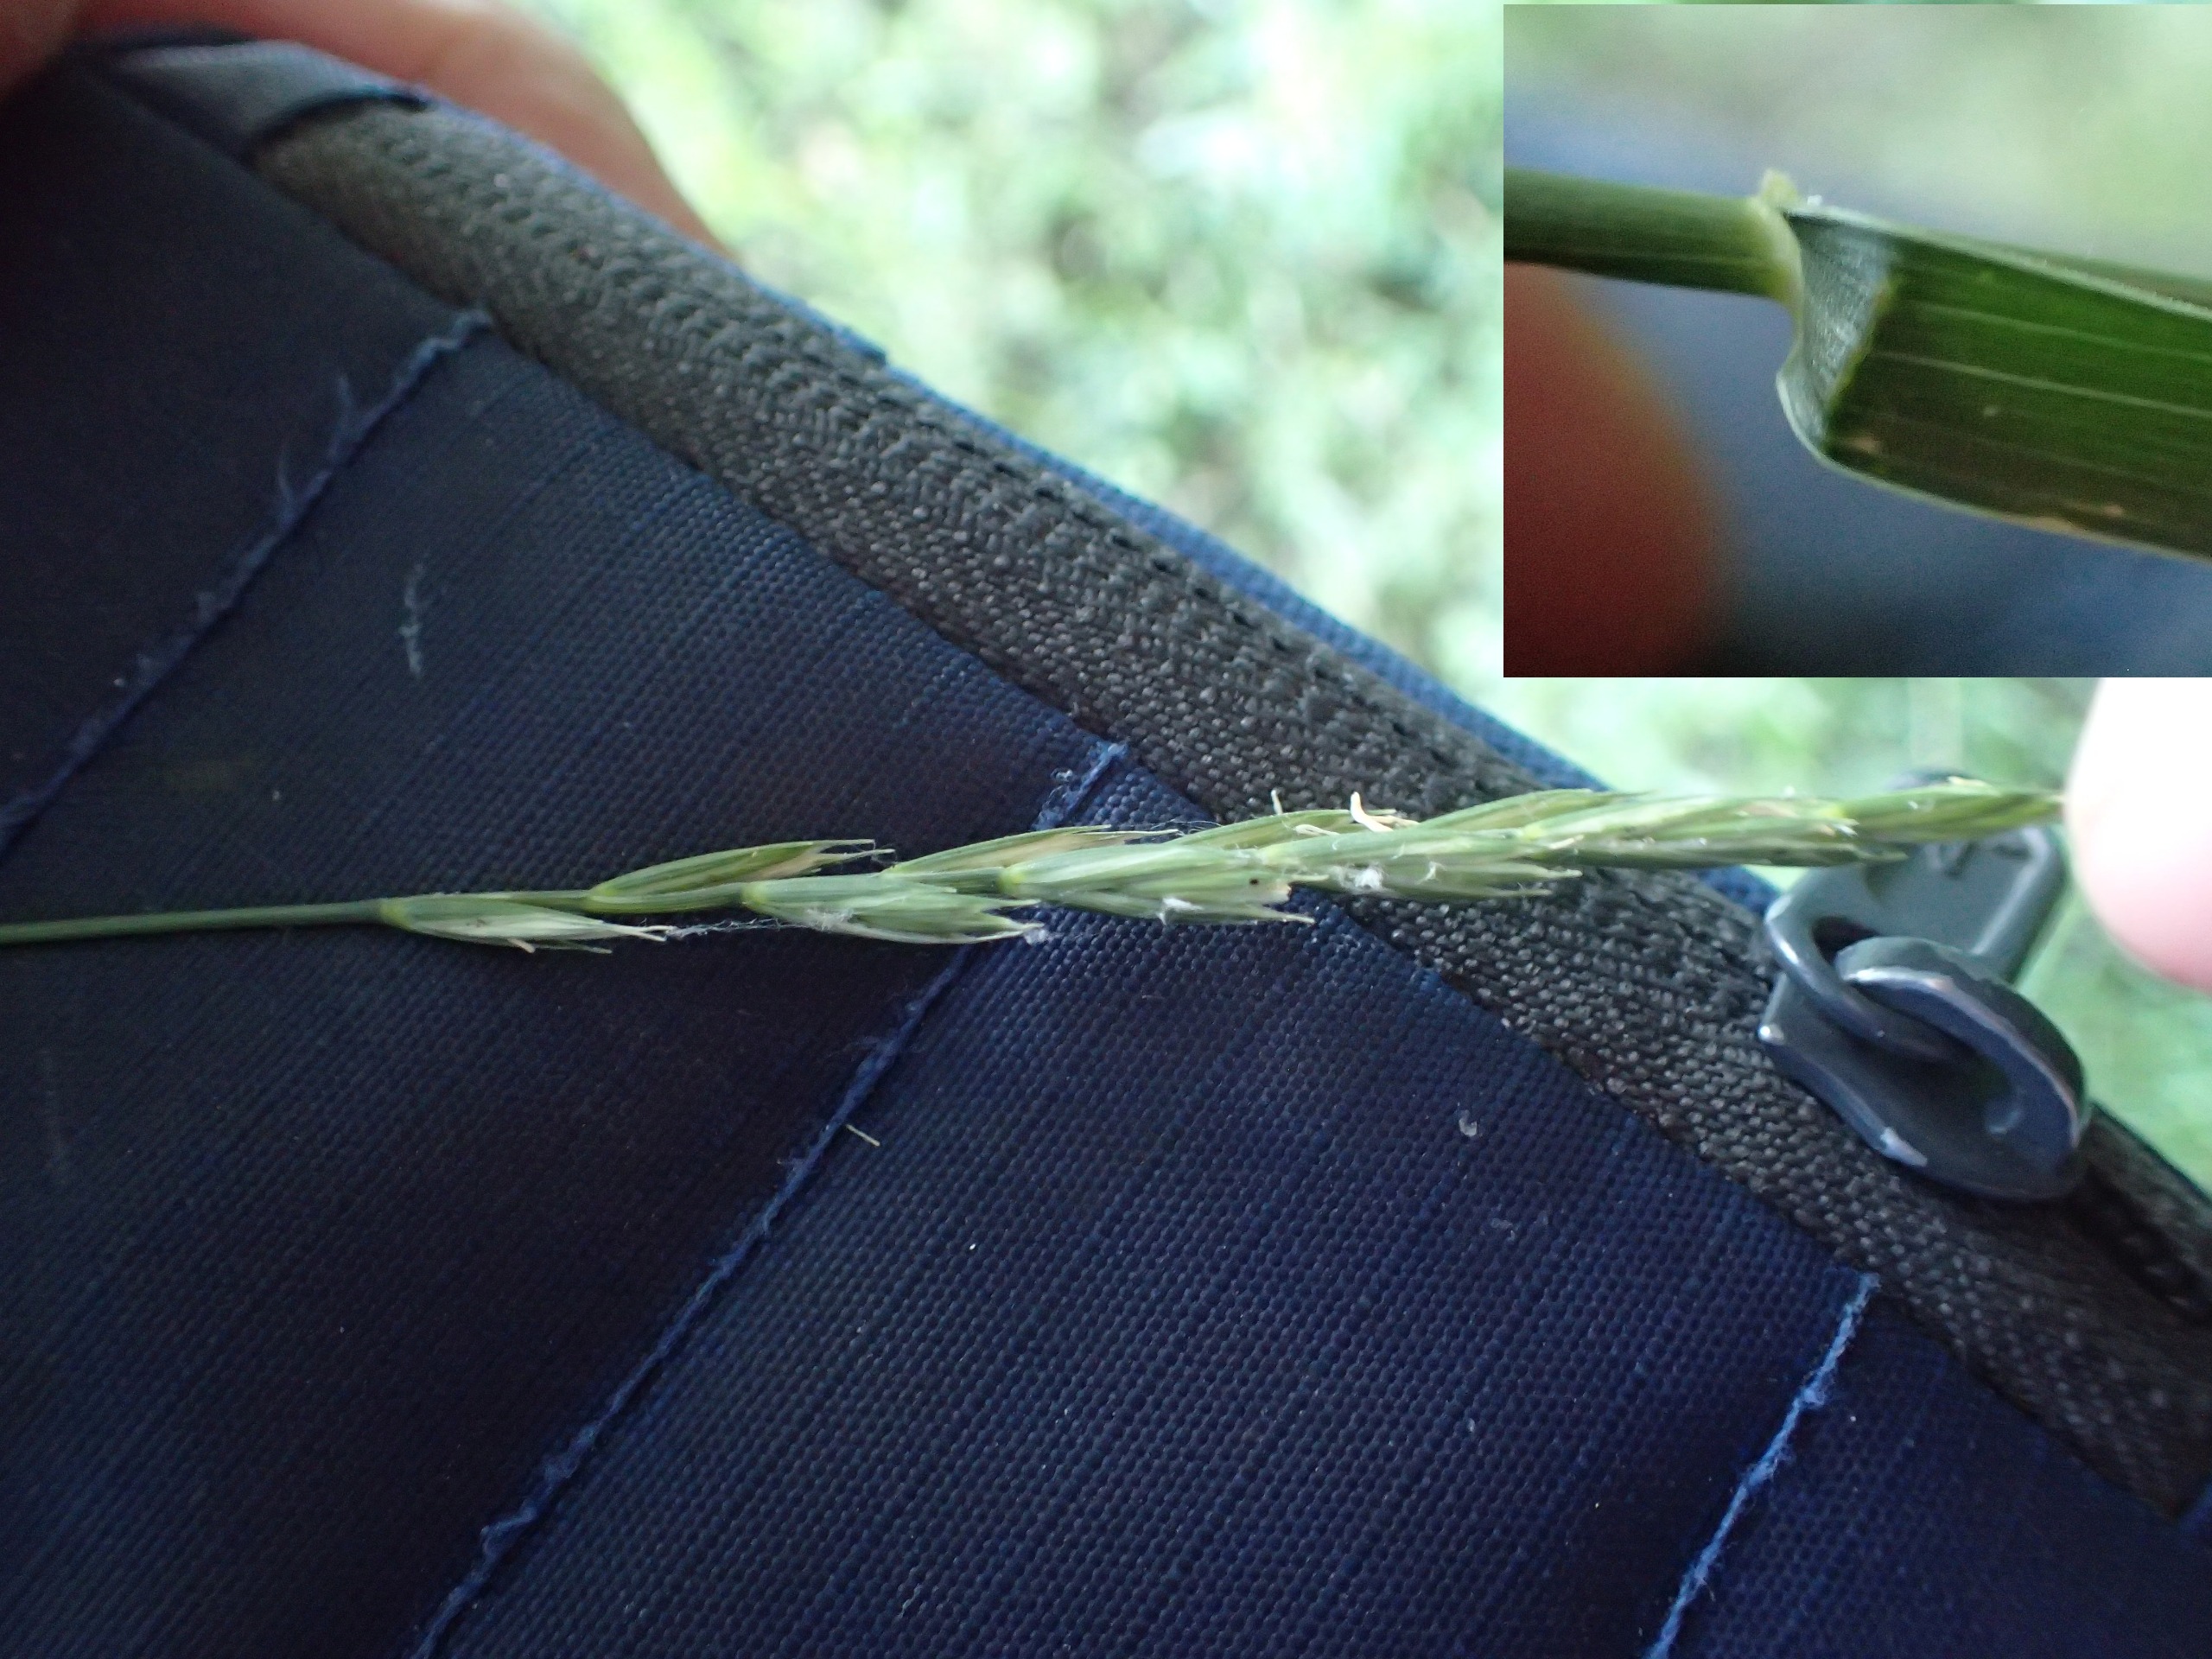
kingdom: Plantae
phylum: Tracheophyta
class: Liliopsida
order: Poales
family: Poaceae
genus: Elymus
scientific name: Elymus repens
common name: Almindelig kvik
